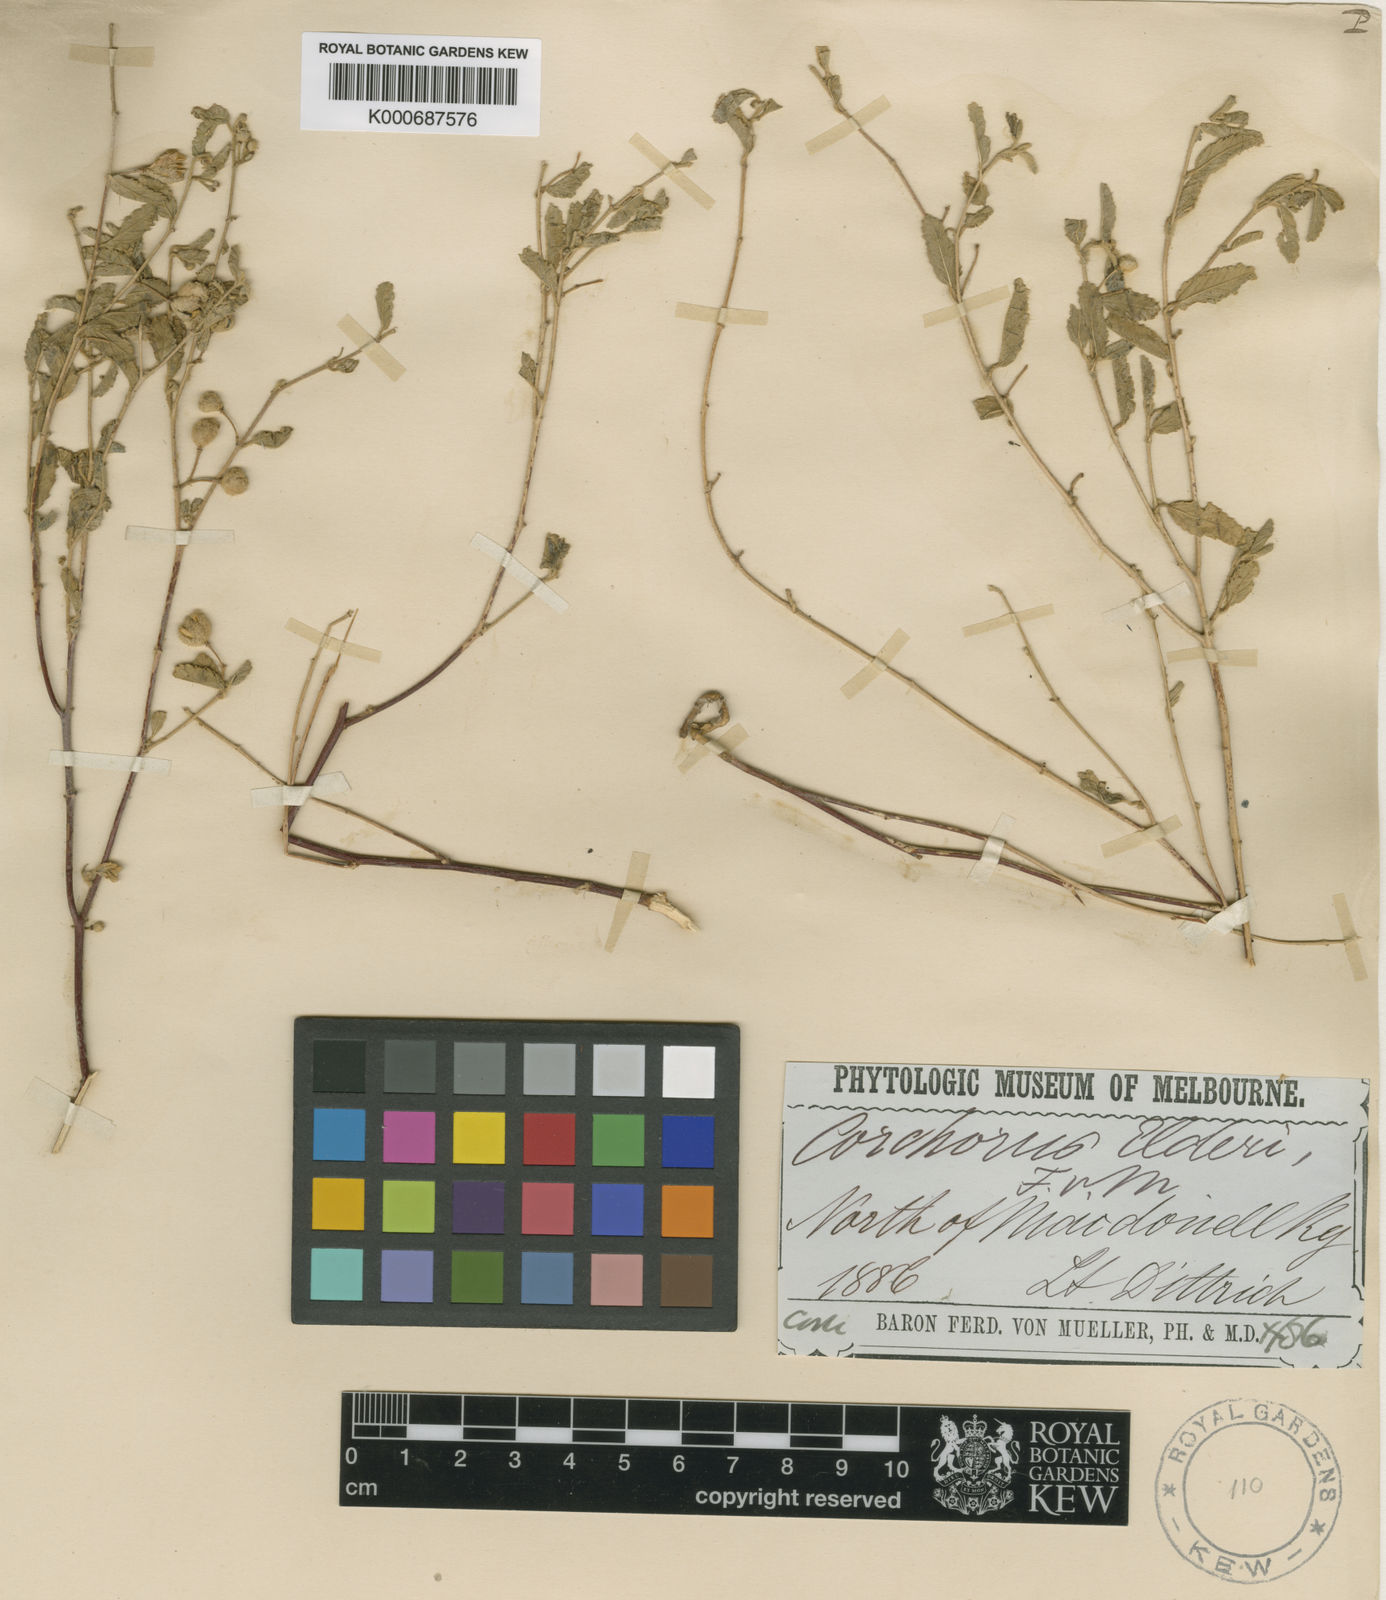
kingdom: Plantae
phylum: Tracheophyta
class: Magnoliopsida
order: Malvales
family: Malvaceae
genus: Corchorus
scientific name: Corchorus elderi
